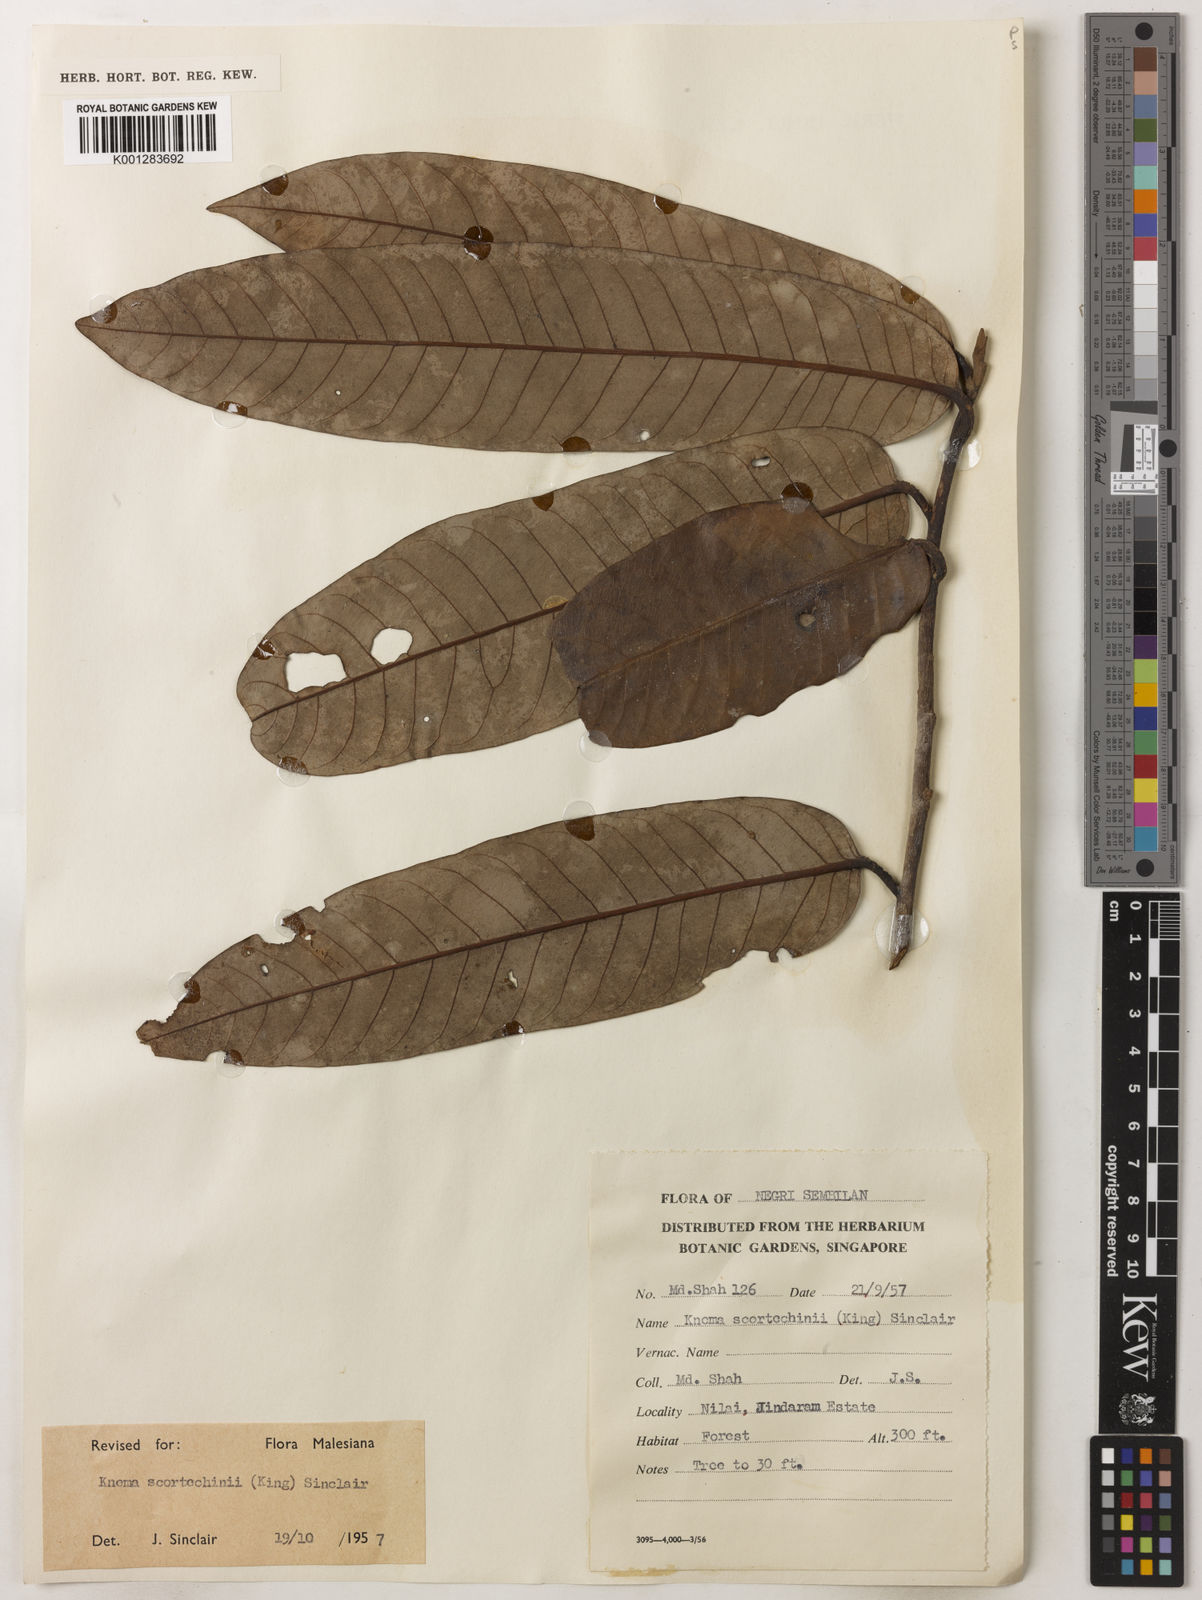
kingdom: Plantae
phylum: Tracheophyta
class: Magnoliopsida
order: Magnoliales
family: Myristicaceae
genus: Knema
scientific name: Knema scortechinii
